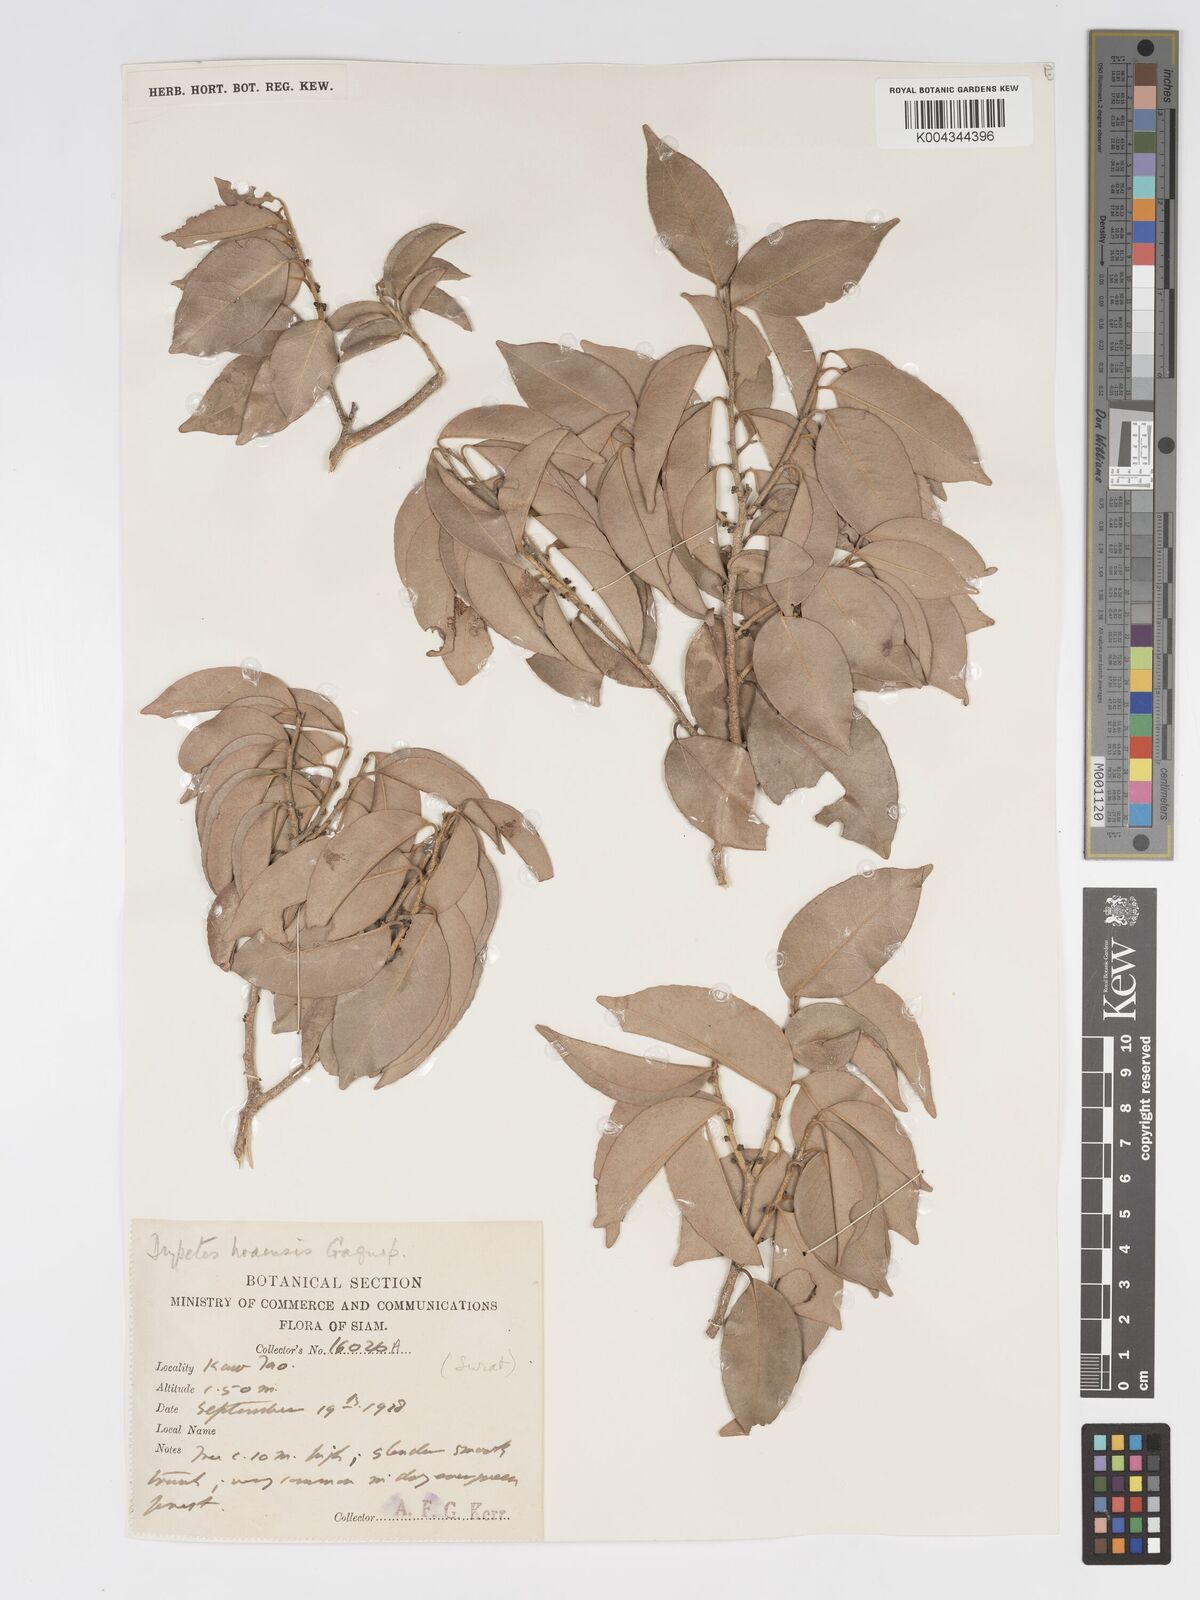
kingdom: Plantae
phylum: Tracheophyta
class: Magnoliopsida
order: Malpighiales
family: Putranjivaceae
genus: Drypetes
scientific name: Drypetes hoaensis
